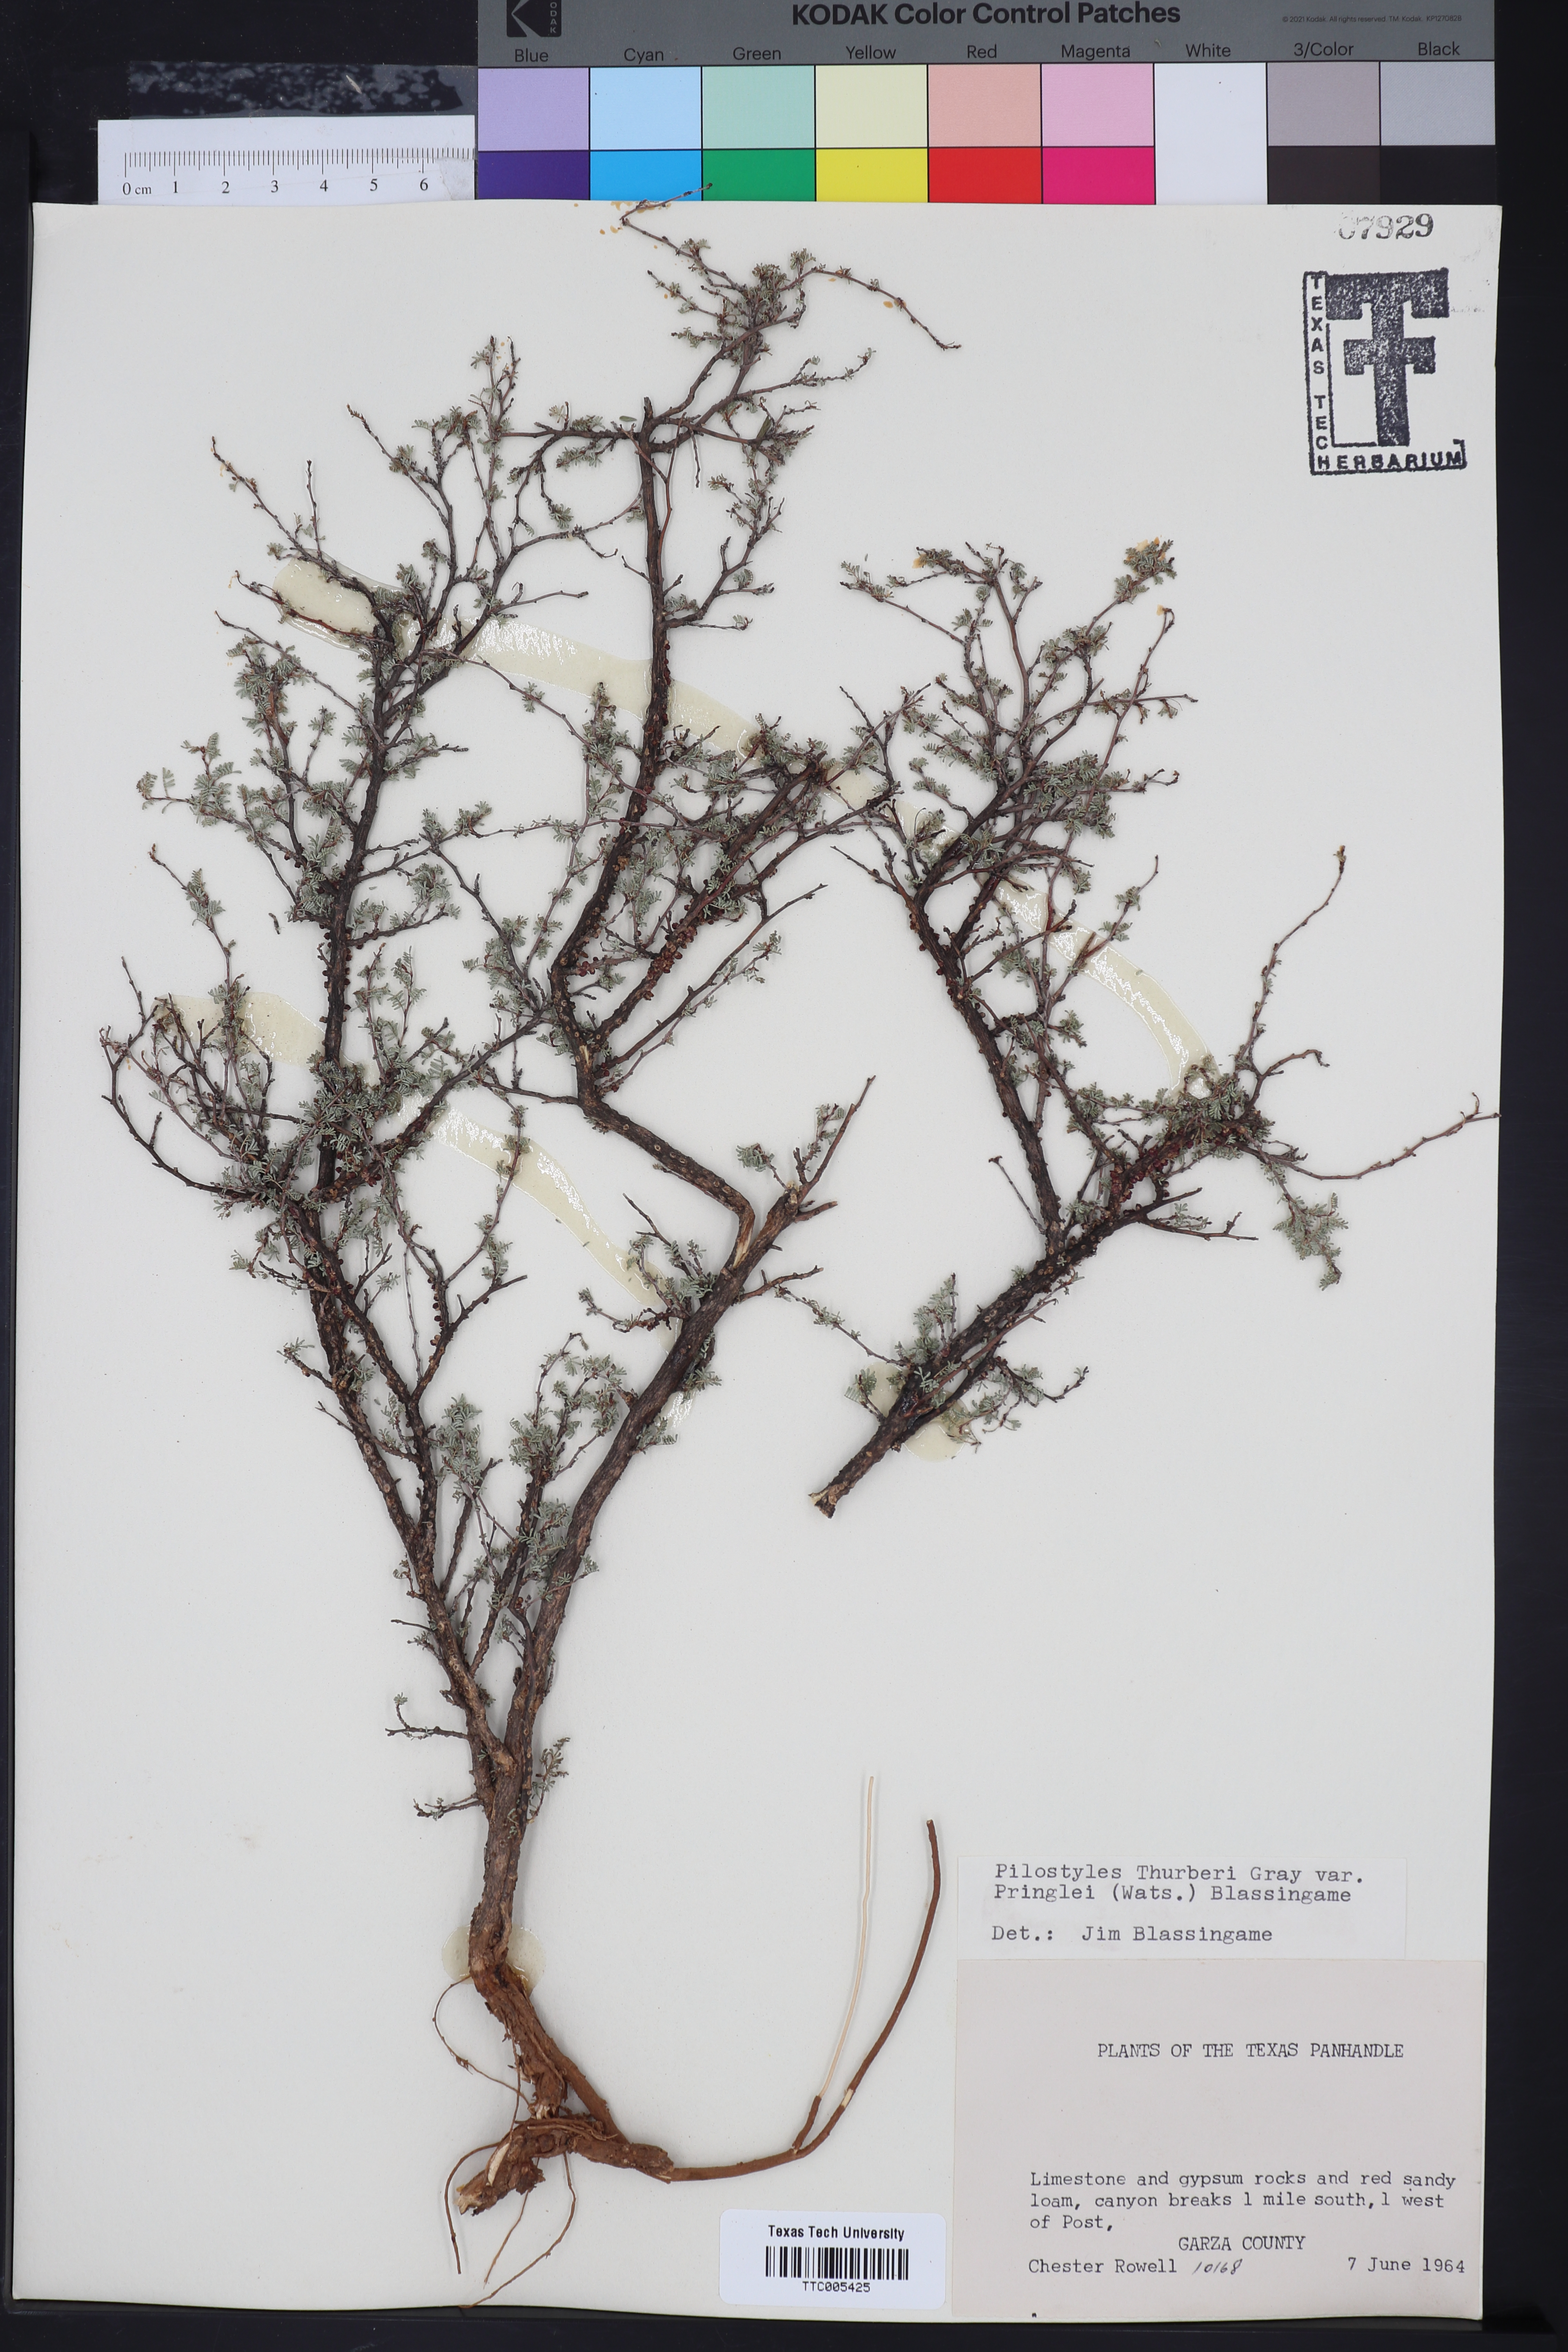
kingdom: Plantae
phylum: Tracheophyta
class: Magnoliopsida
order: Cucurbitales
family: Apodanthaceae
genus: Pilostyles
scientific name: Pilostyles thurberi
